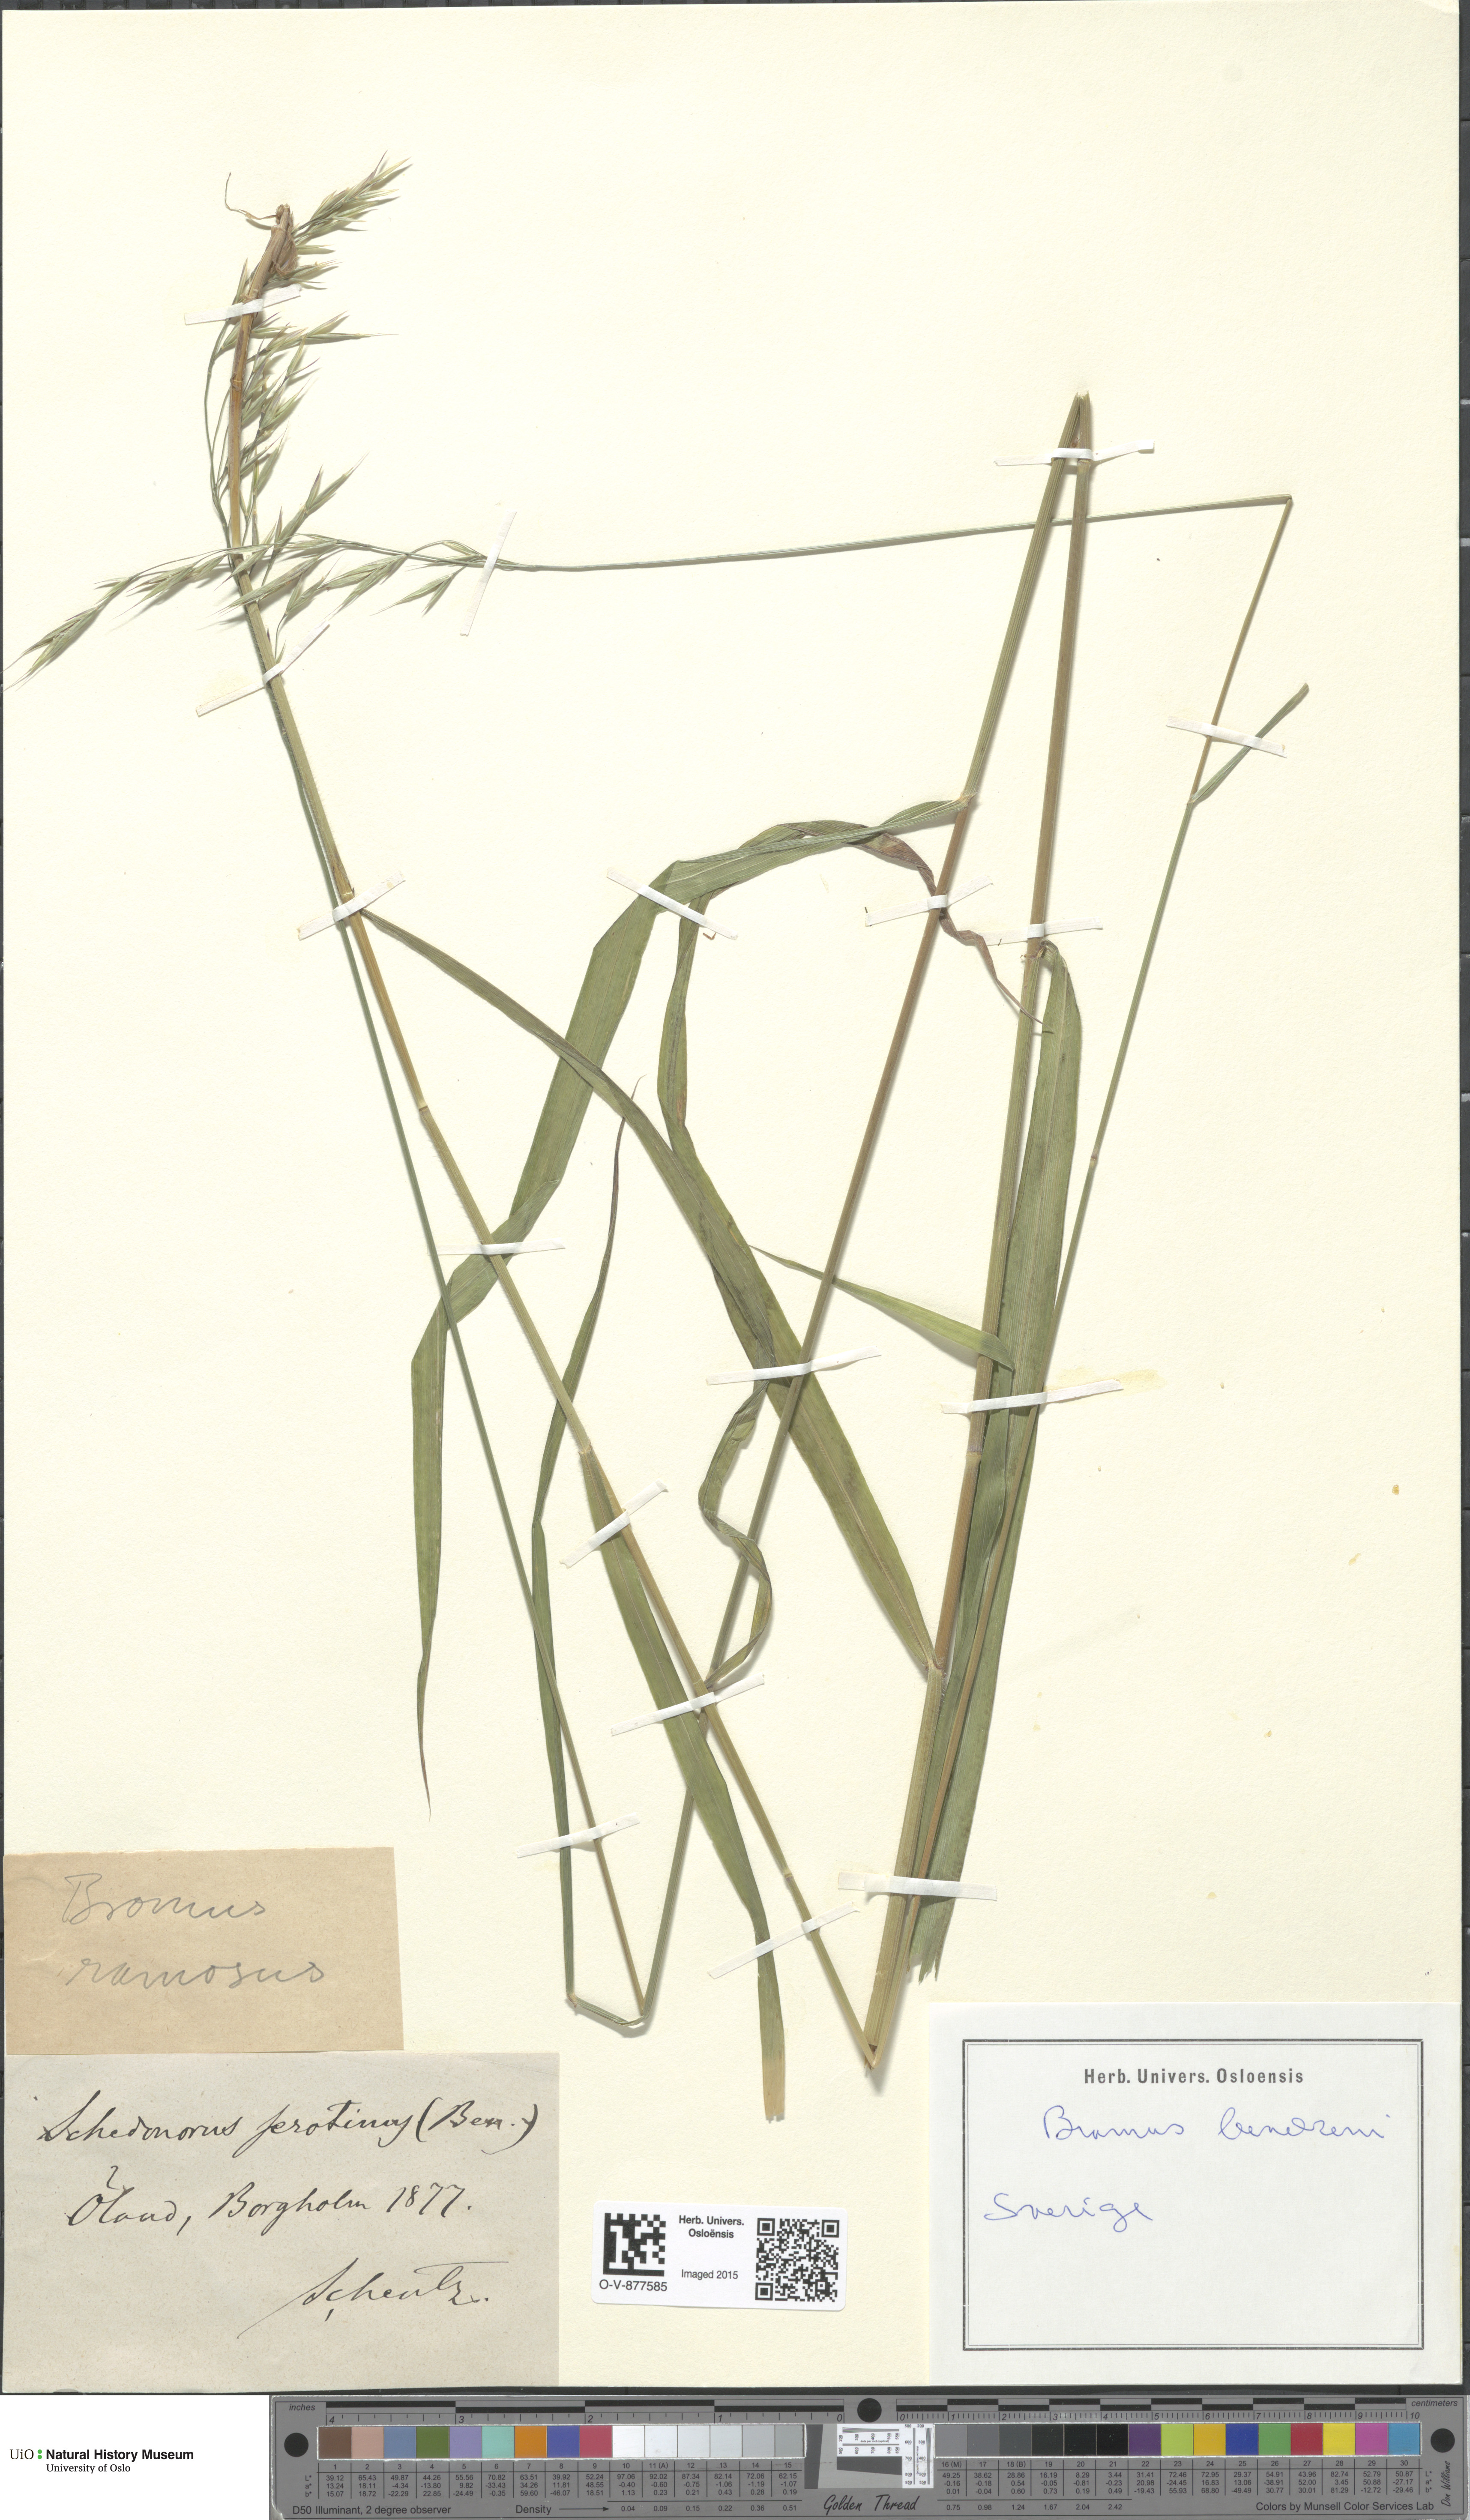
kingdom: Plantae
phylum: Tracheophyta
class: Liliopsida
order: Poales
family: Poaceae
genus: Bromus
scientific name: Bromus benekenii
